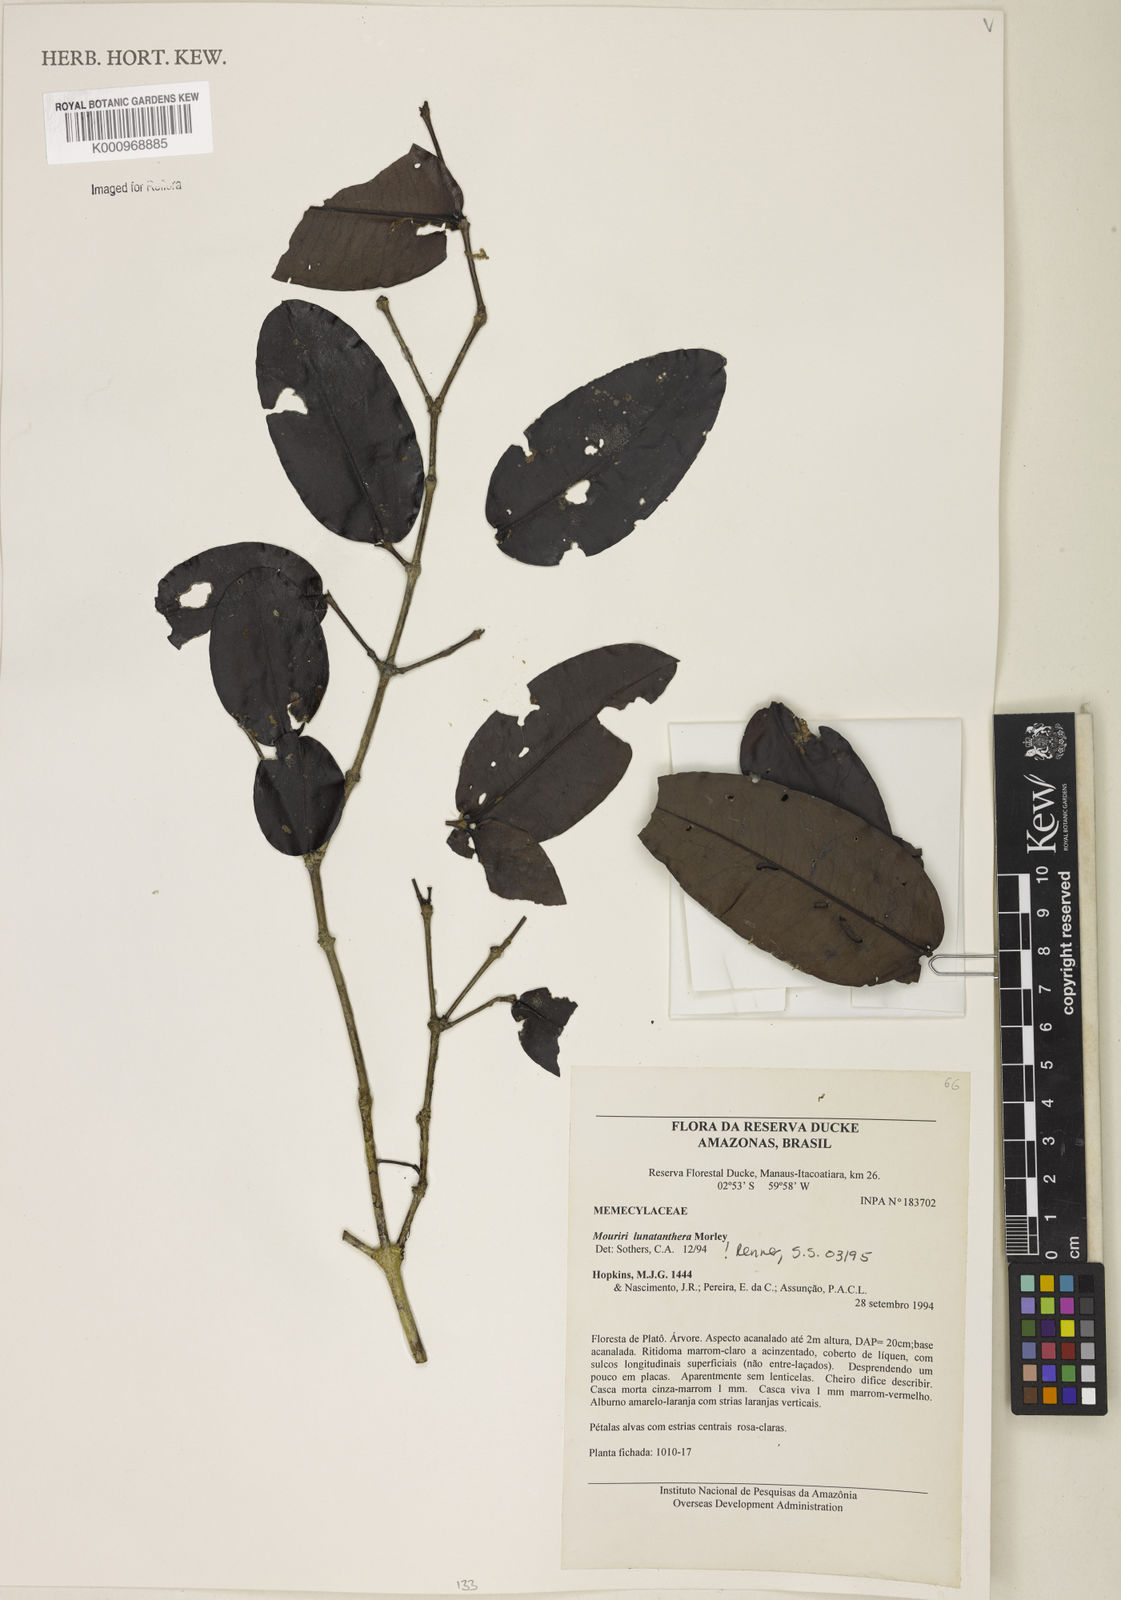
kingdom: Plantae
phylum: Tracheophyta
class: Magnoliopsida
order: Myrtales
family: Melastomataceae
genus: Mouriri
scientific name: Mouriri
